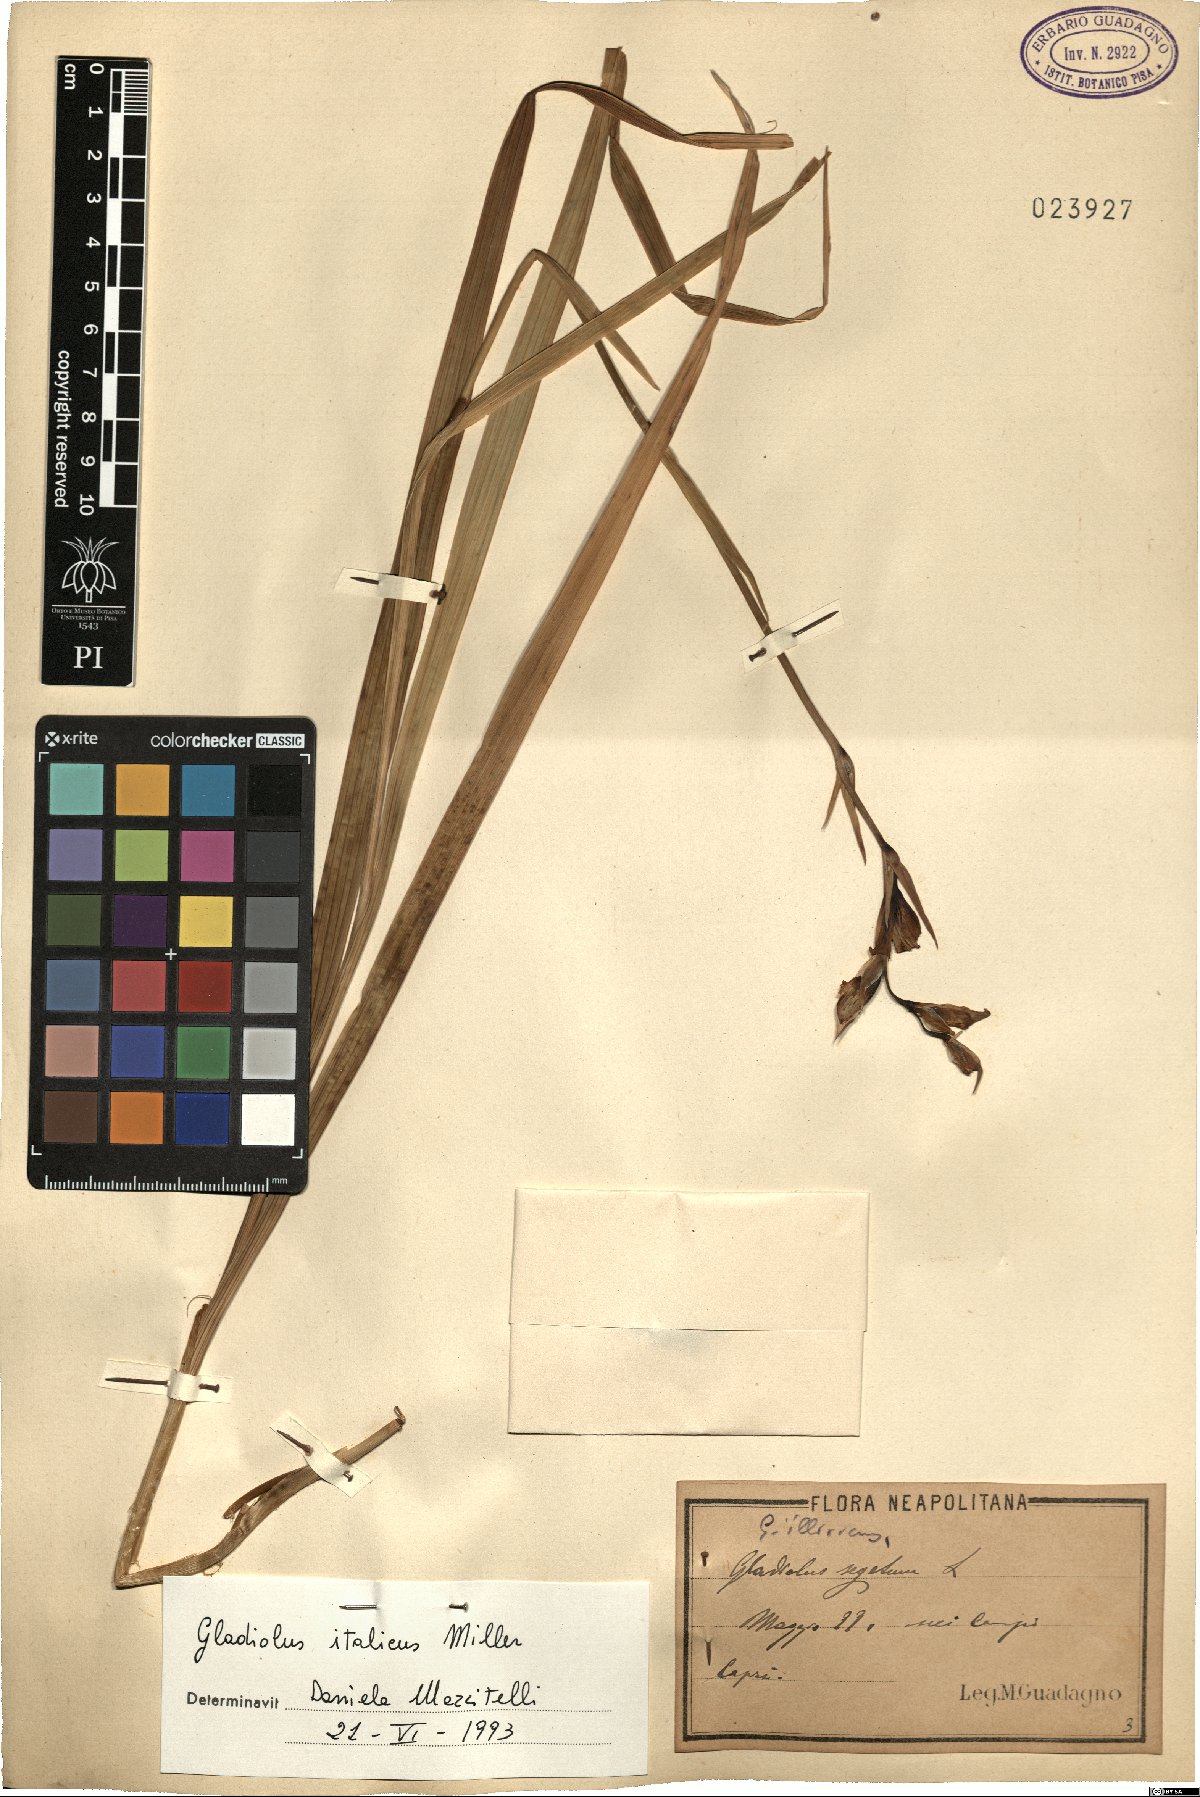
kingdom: Plantae
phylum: Tracheophyta
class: Liliopsida
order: Asparagales
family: Iridaceae
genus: Gladiolus
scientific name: Gladiolus italicus
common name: Field gladiolus
